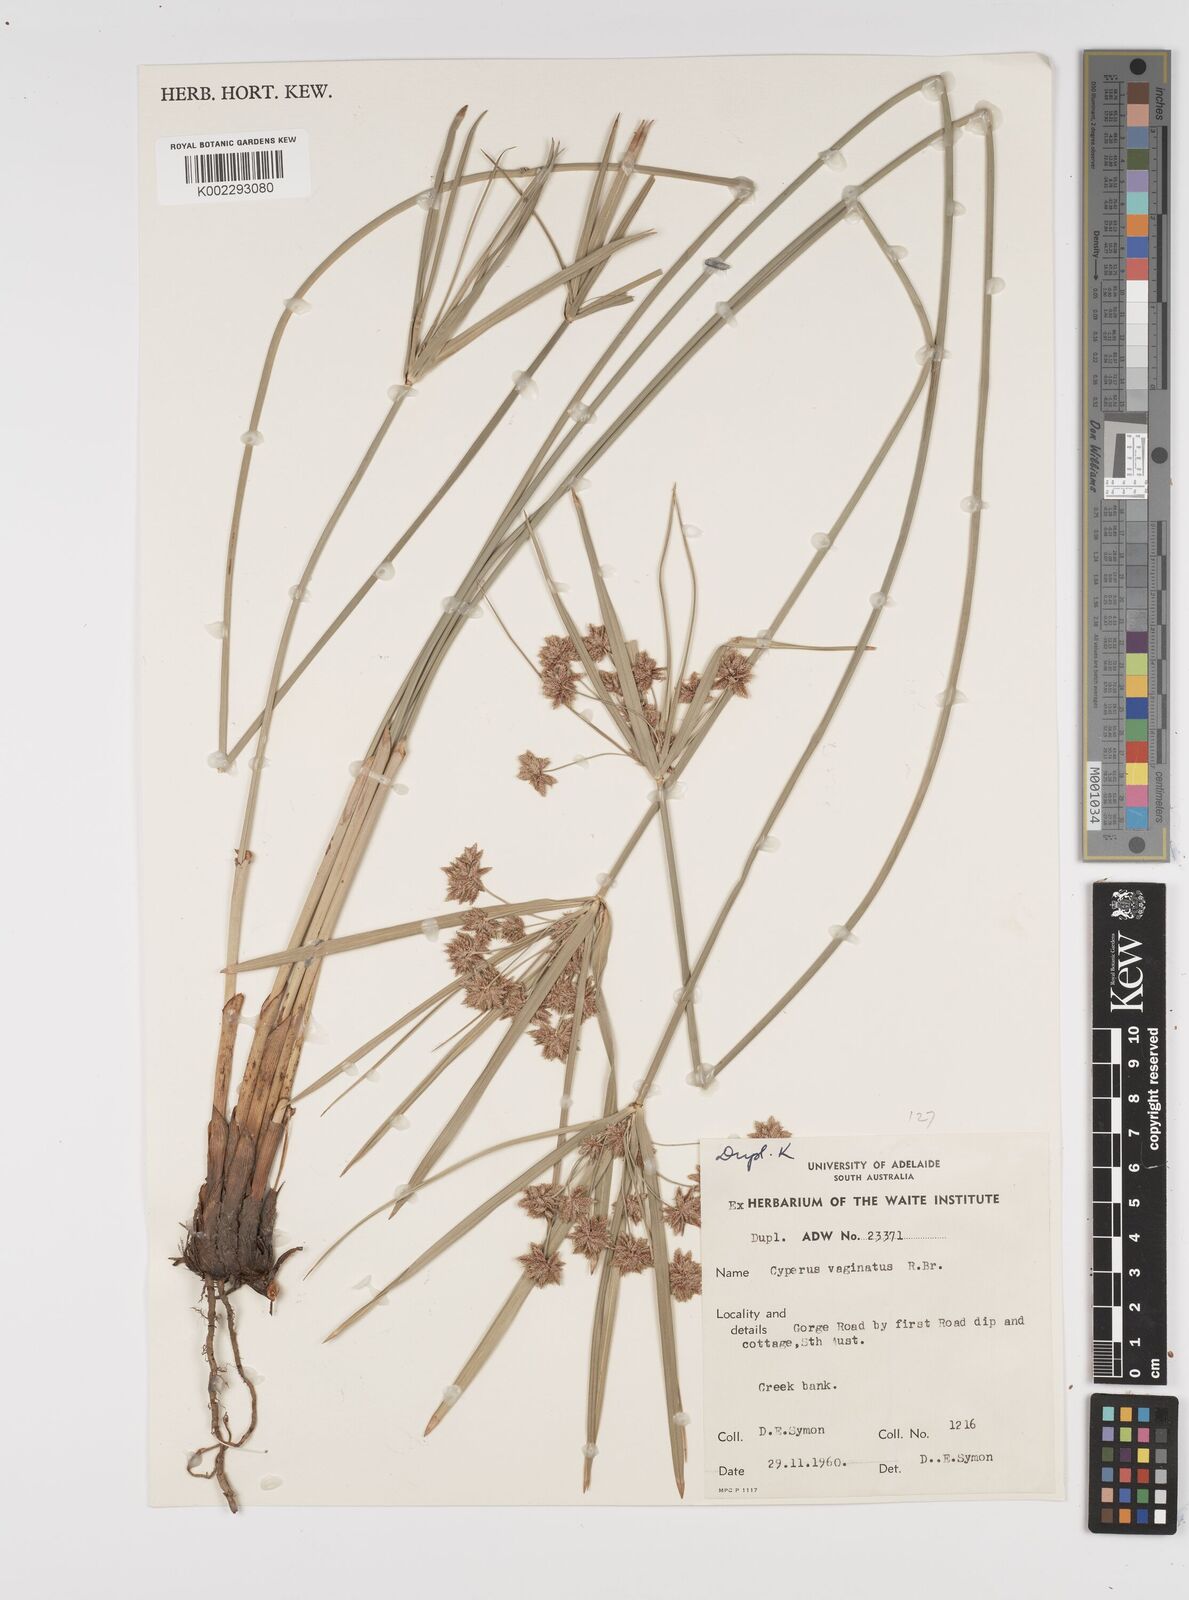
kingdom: Plantae
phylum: Tracheophyta
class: Liliopsida
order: Poales
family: Cyperaceae
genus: Cyperus
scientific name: Cyperus vaginatus
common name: Stiff-leaved flat-sedge
